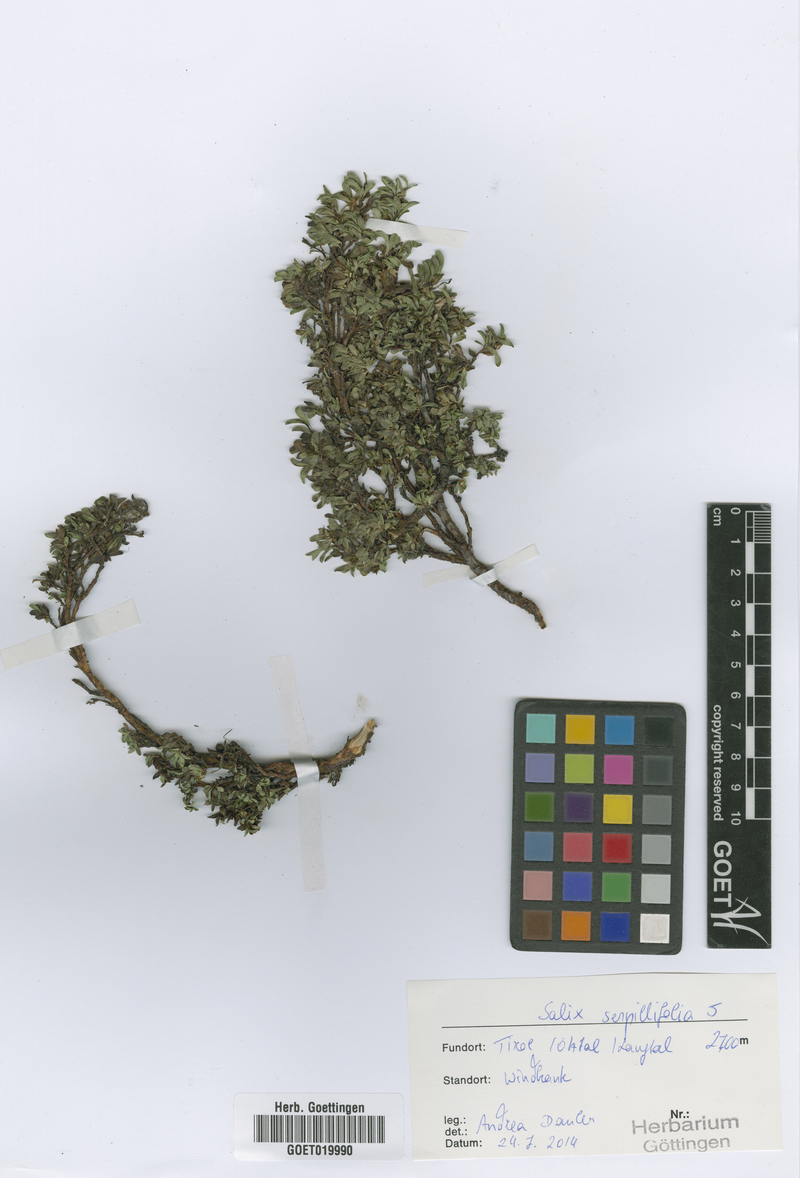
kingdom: Plantae
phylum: Tracheophyta
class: Magnoliopsida
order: Malpighiales
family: Salicaceae
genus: Salix
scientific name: Salix serpillifolia
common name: Thyme-leaf willow
